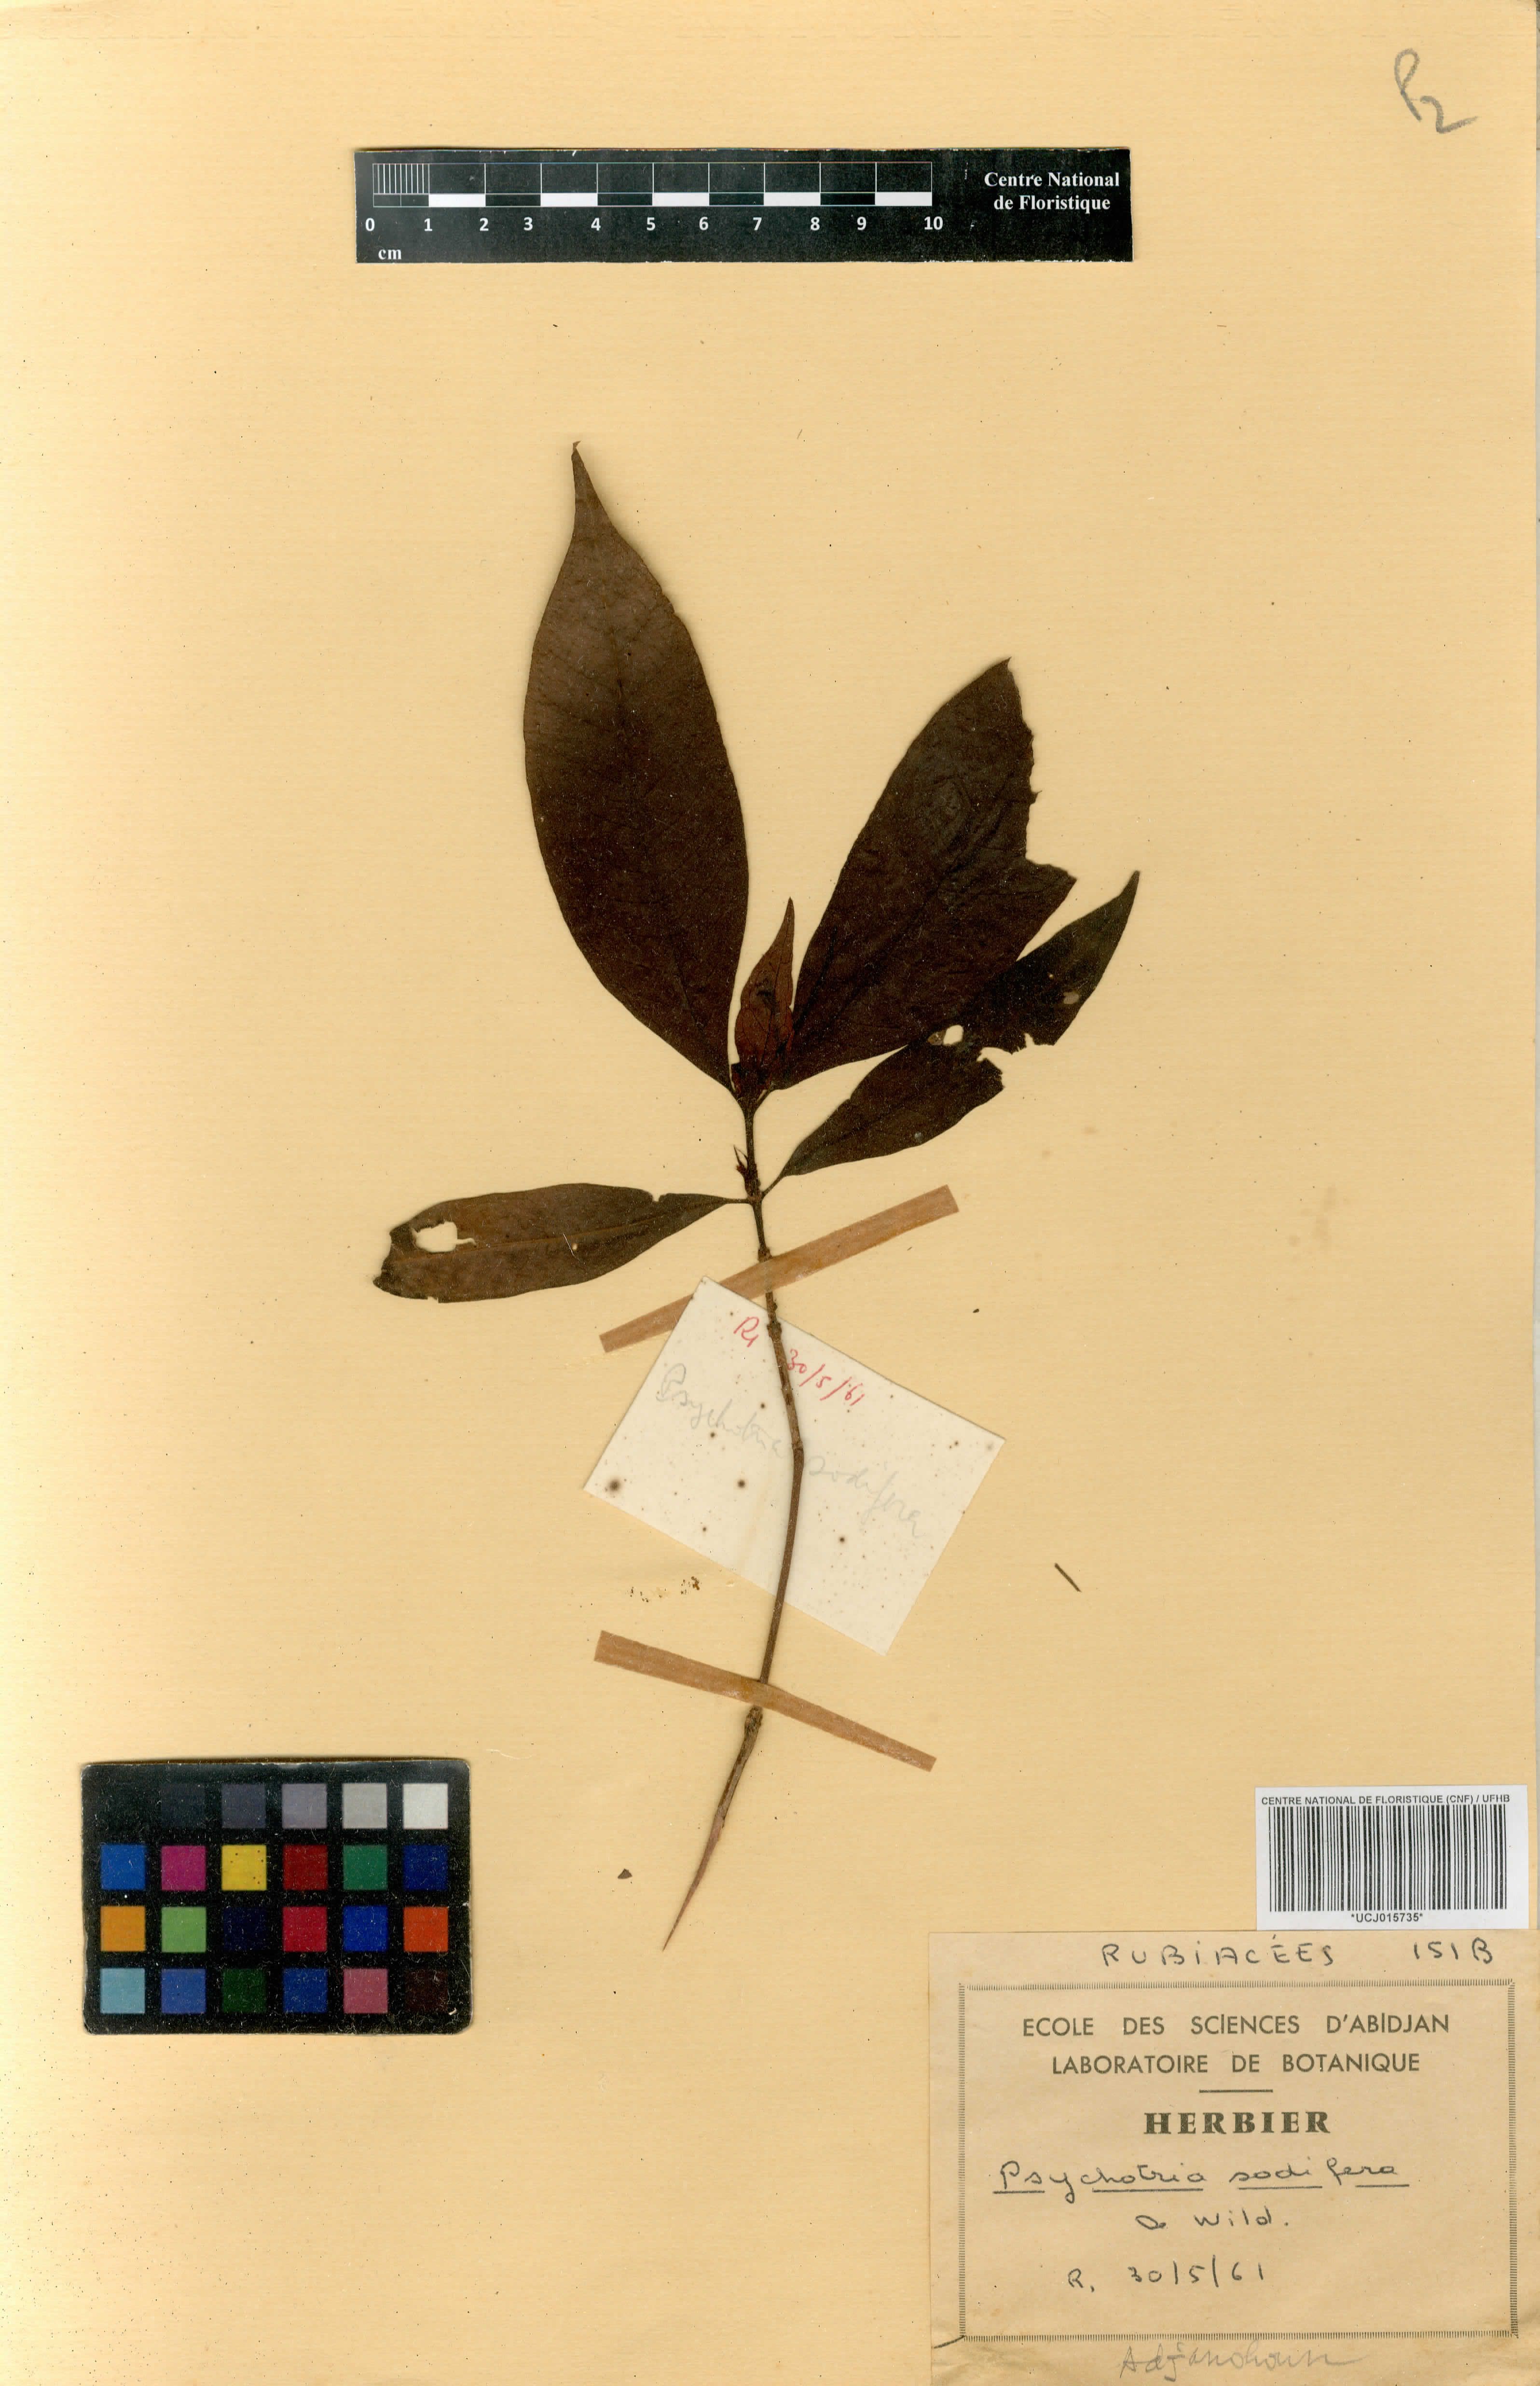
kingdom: Plantae
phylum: Tracheophyta
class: Magnoliopsida
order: Gentianales
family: Rubiaceae
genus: Psychotria
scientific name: Psychotria schweinfurthii
